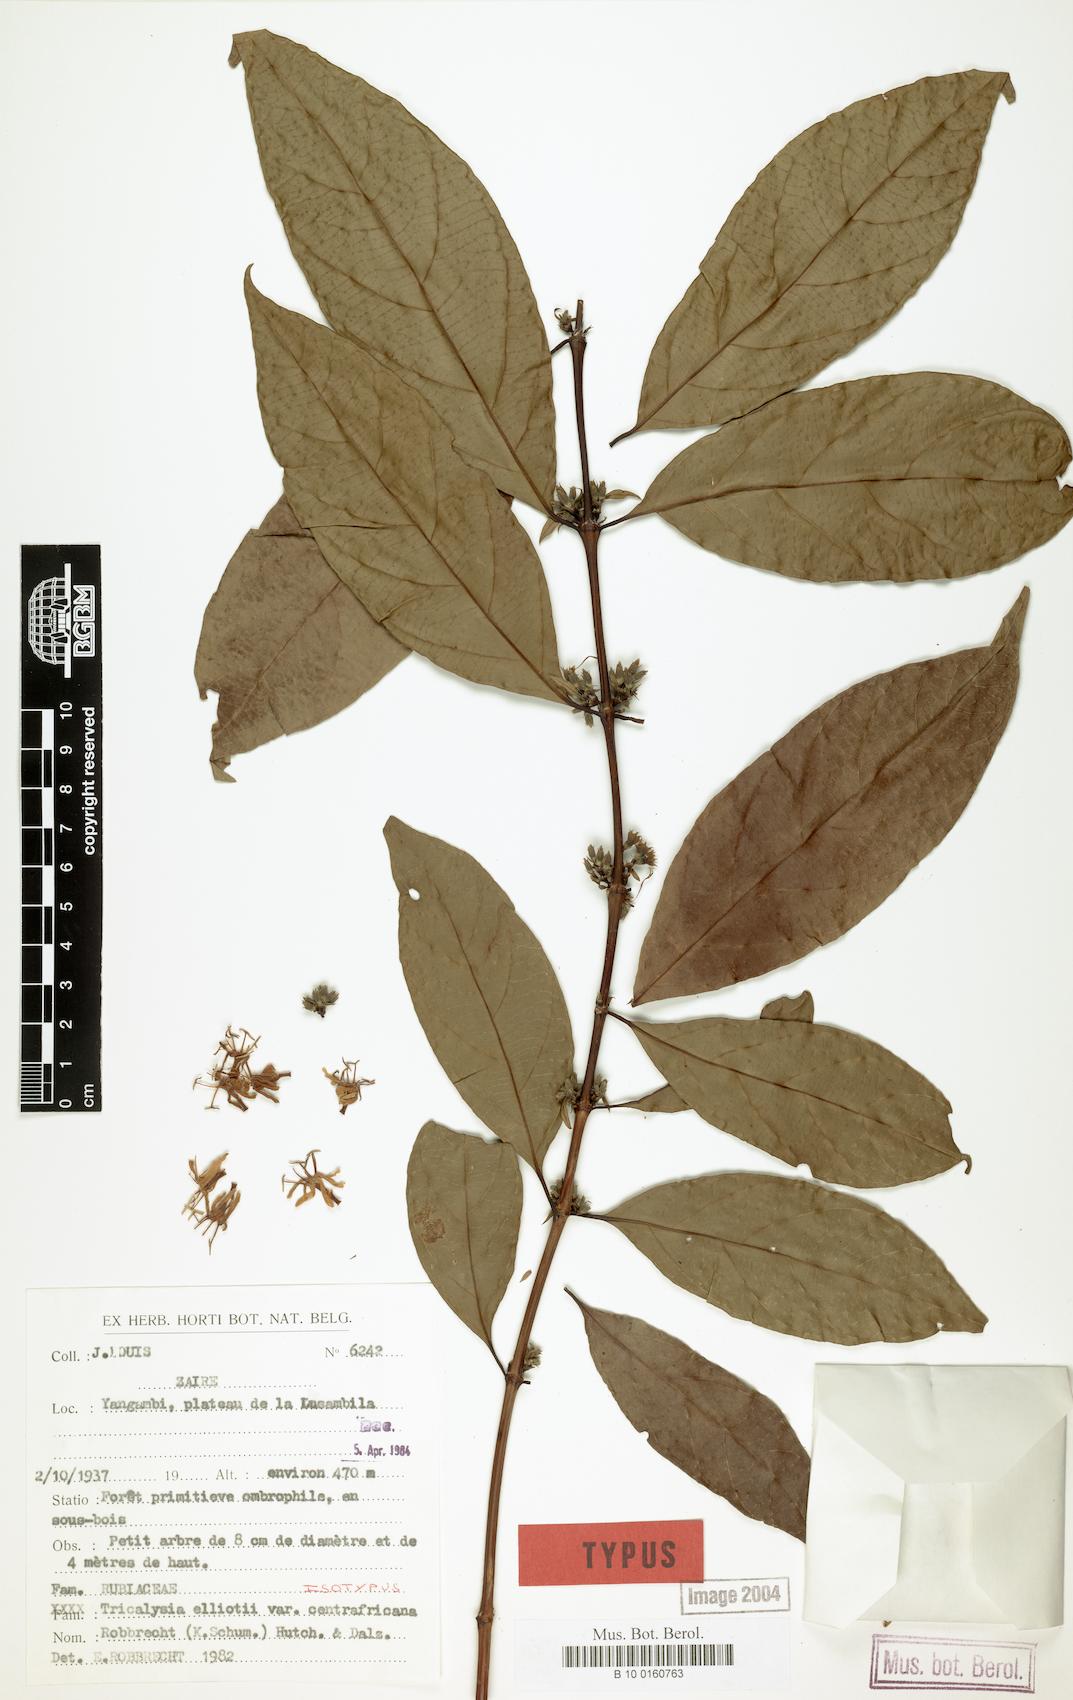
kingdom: Plantae
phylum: Tracheophyta
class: Magnoliopsida
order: Gentianales
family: Rubiaceae
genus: Tricalysia
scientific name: Tricalysia elliottii
